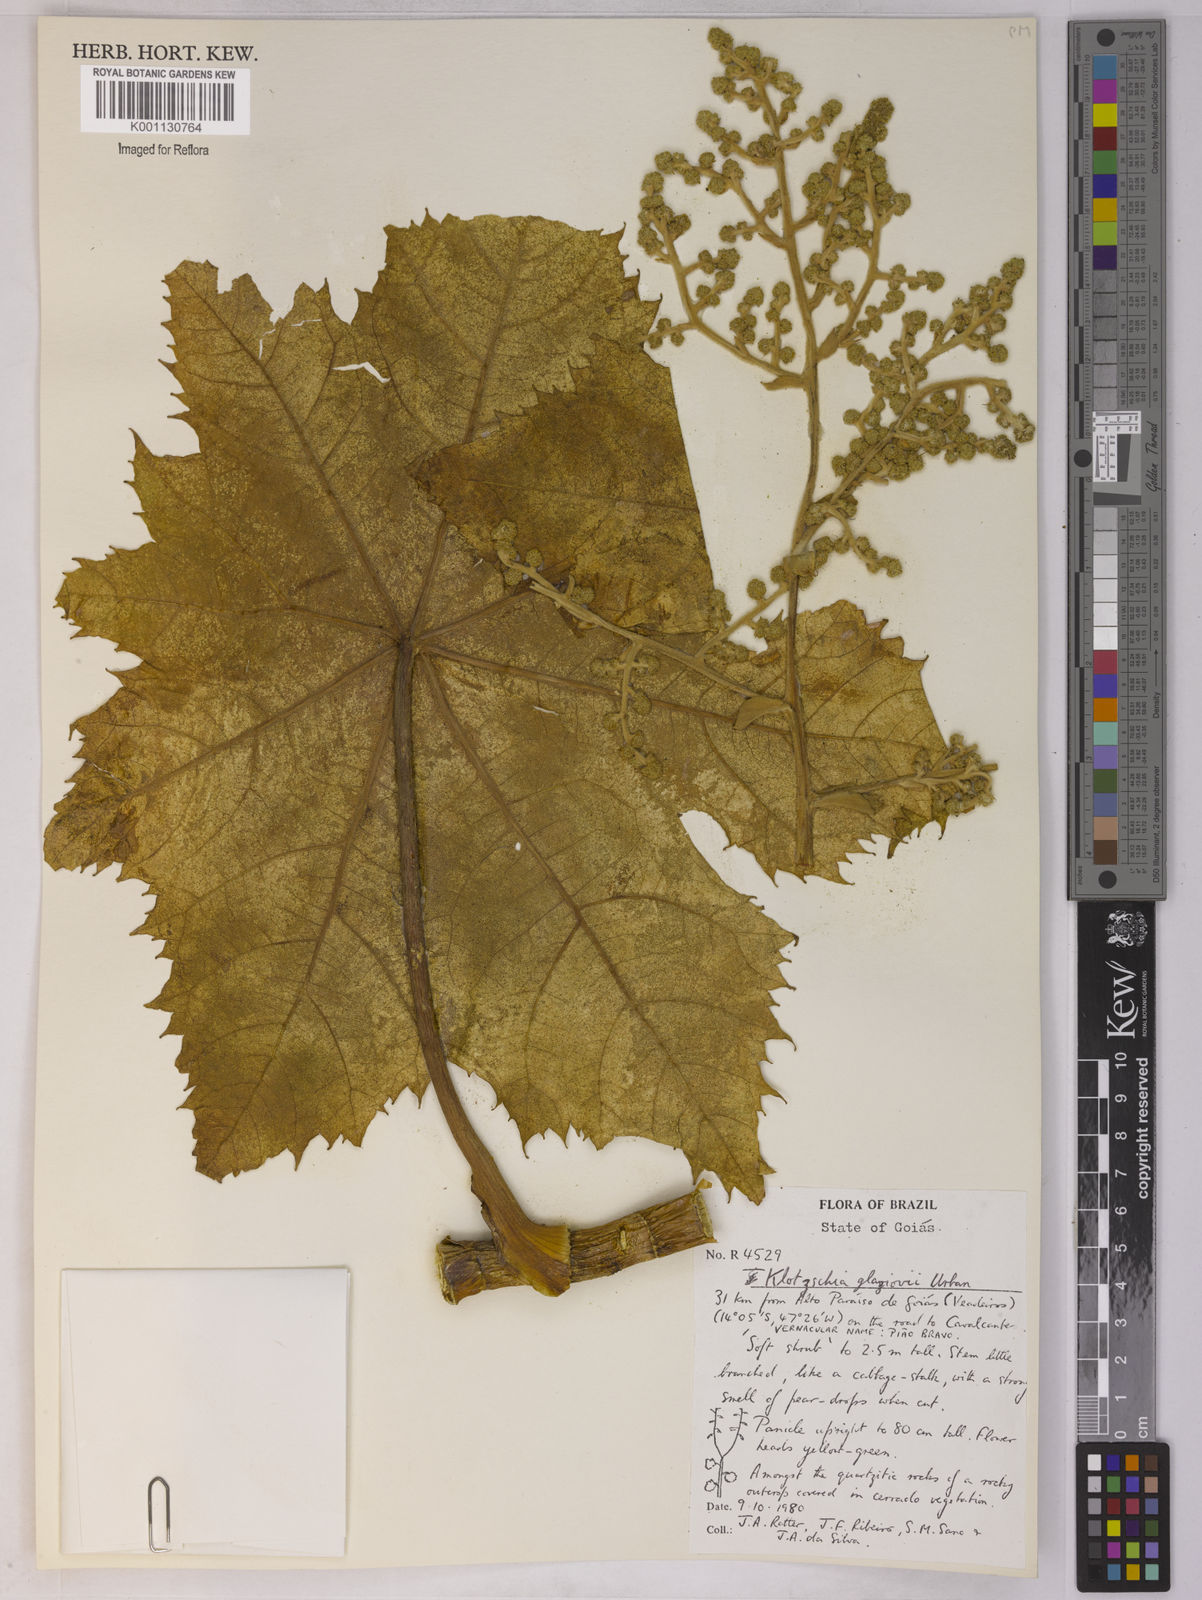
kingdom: Plantae
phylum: Tracheophyta
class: Magnoliopsida
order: Apiales
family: Apiaceae
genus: Klotzschia
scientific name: Klotzschia glaziovii
